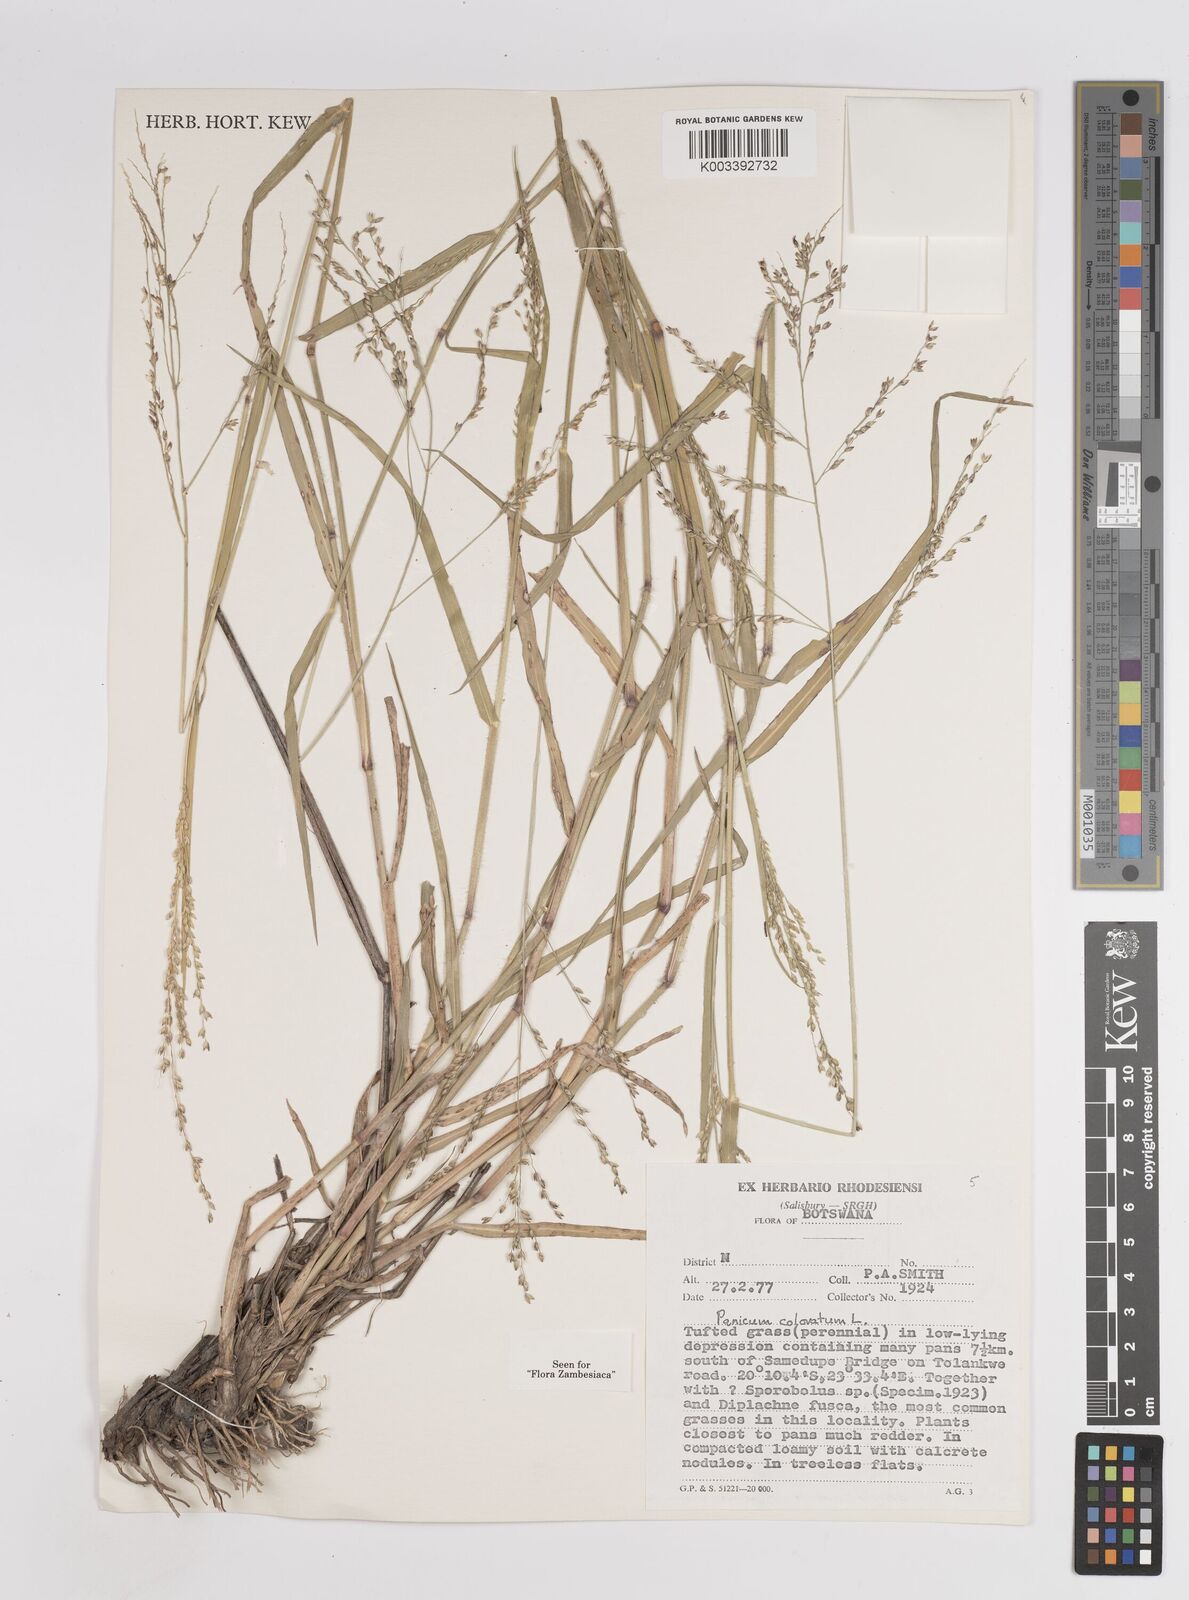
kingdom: Plantae
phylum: Tracheophyta
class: Liliopsida
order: Poales
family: Poaceae
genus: Panicum
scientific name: Panicum coloratum
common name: Kleingrass
